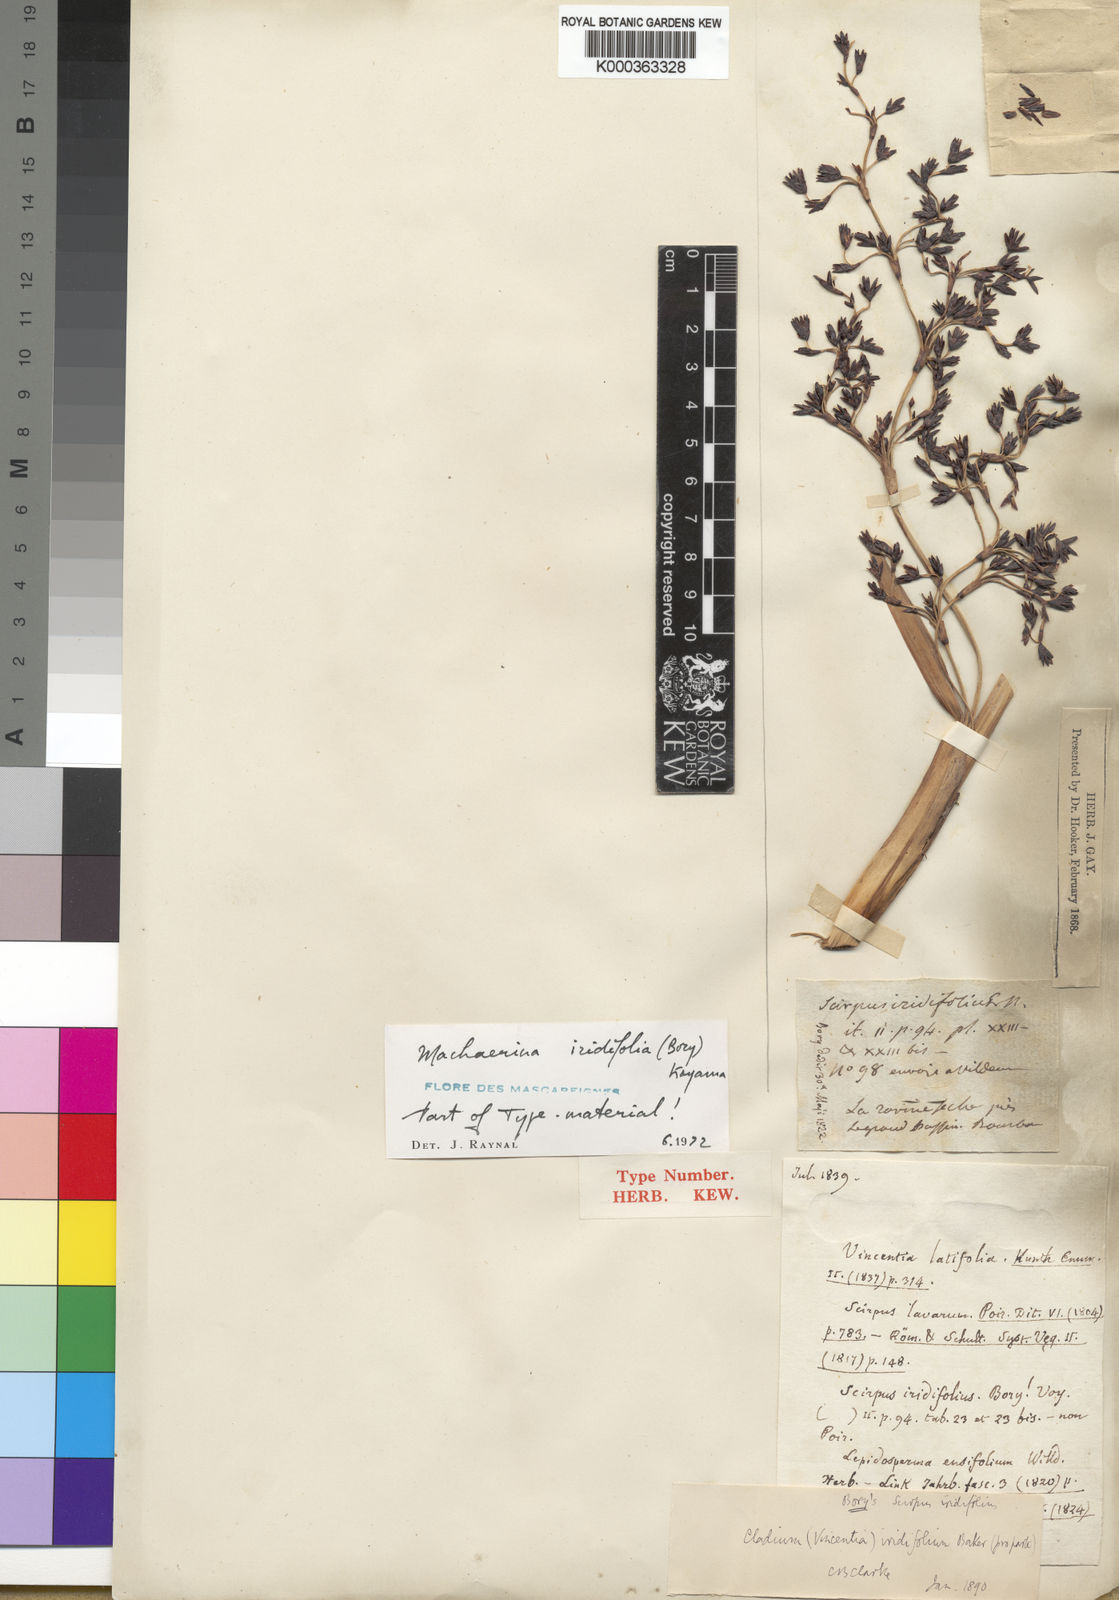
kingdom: Plantae
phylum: Tracheophyta
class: Liliopsida
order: Poales
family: Cyperaceae
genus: Machaerina
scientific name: Machaerina iridifolia
